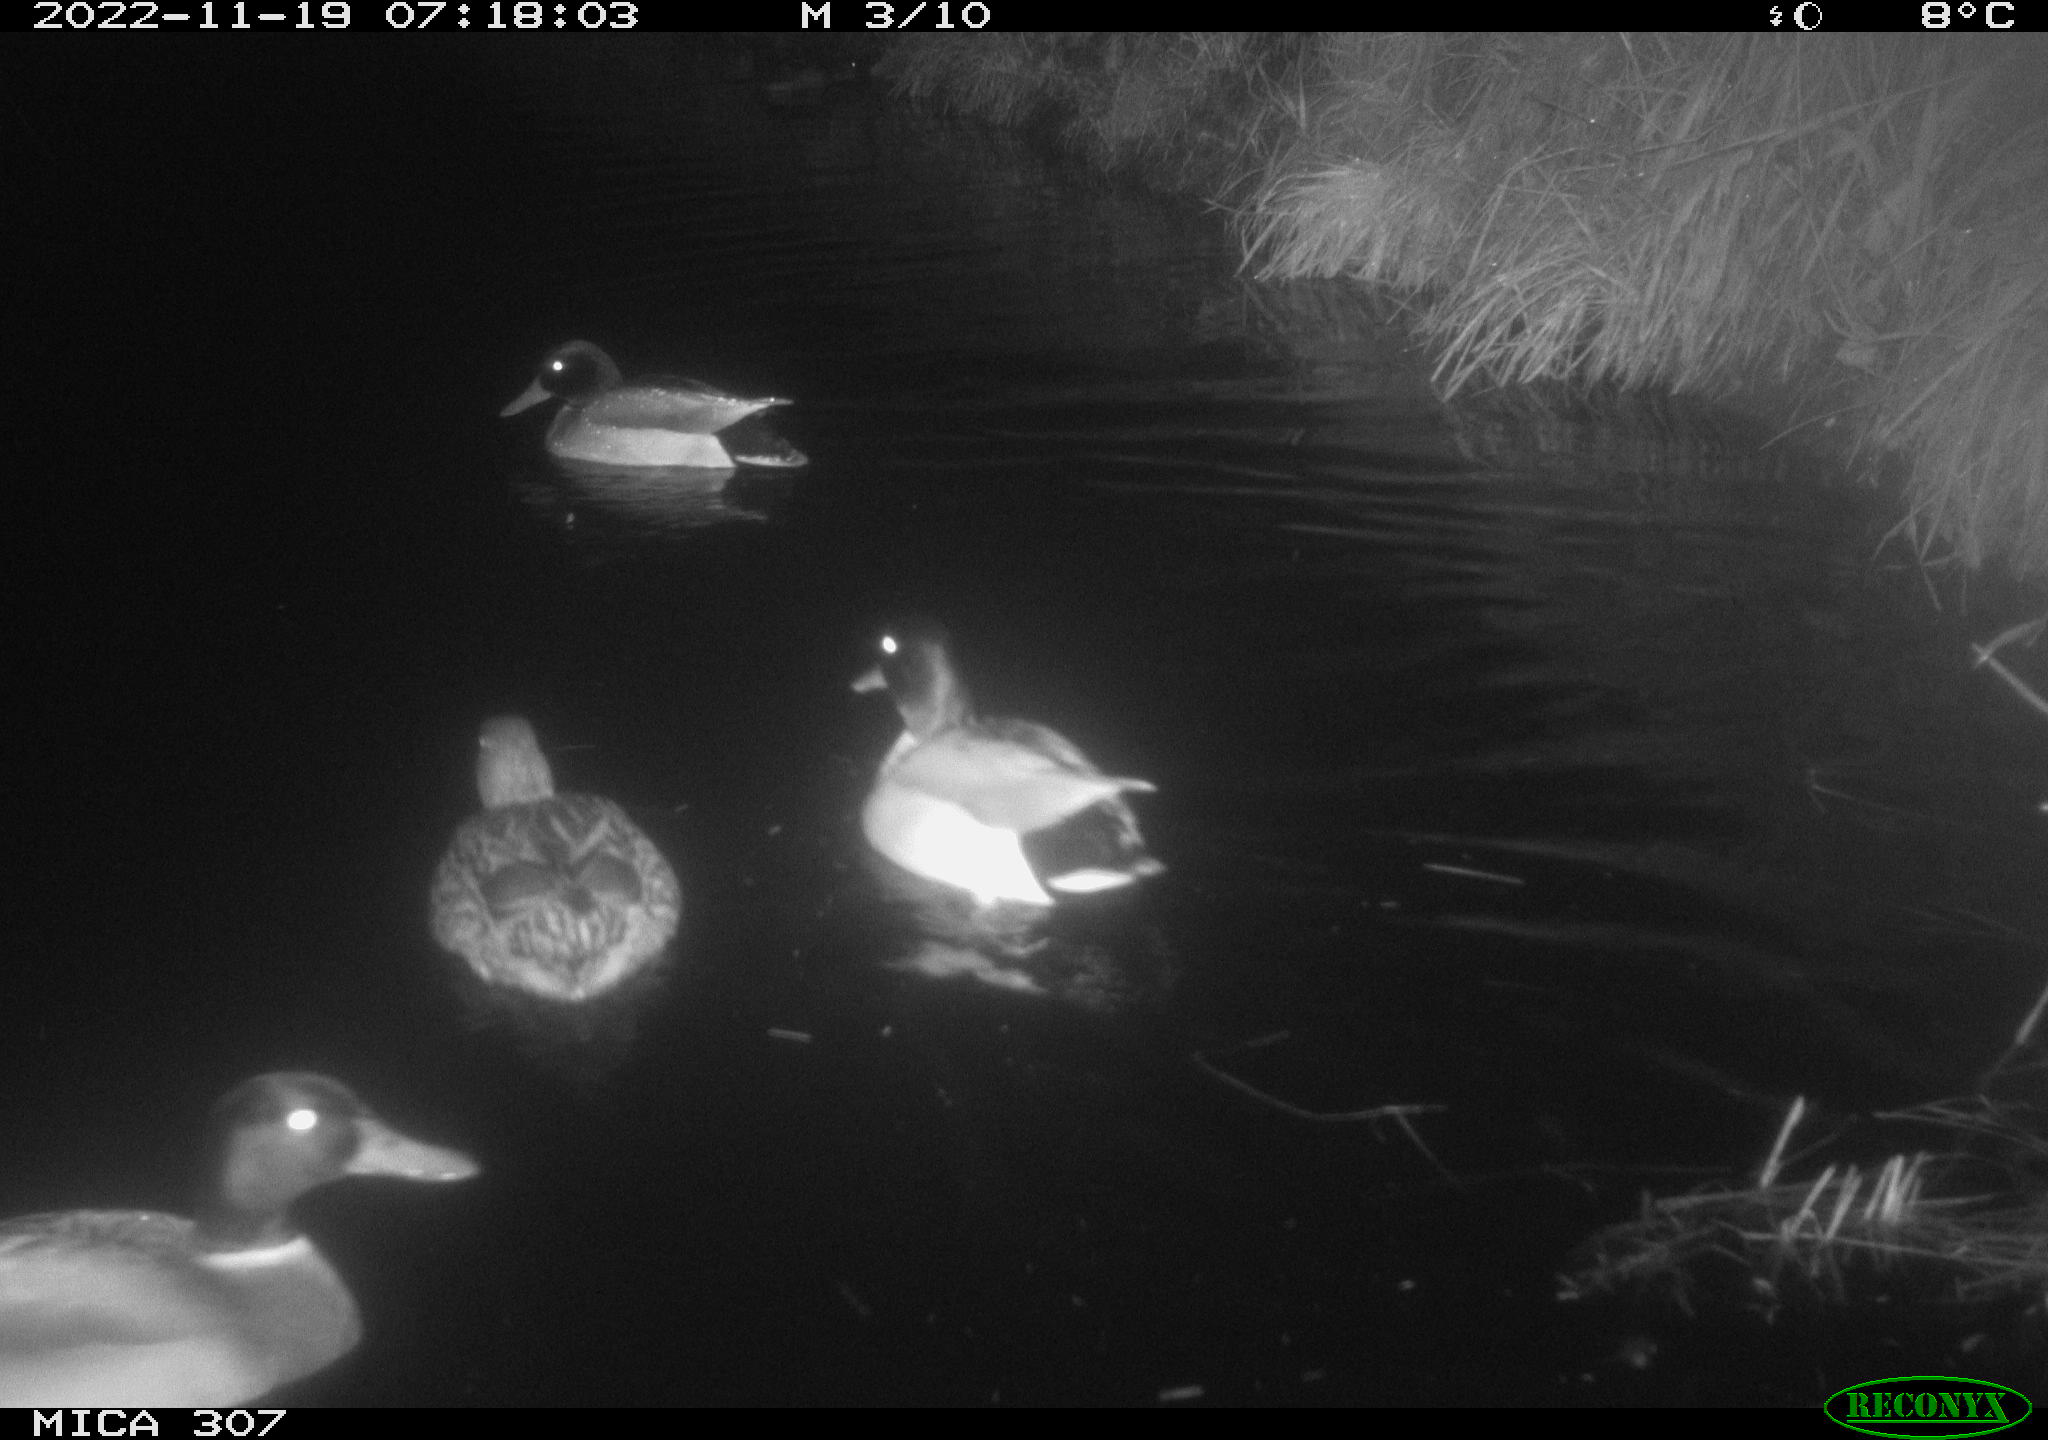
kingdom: Animalia
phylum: Chordata
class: Aves
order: Anseriformes
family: Anatidae
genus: Anas
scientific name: Anas
